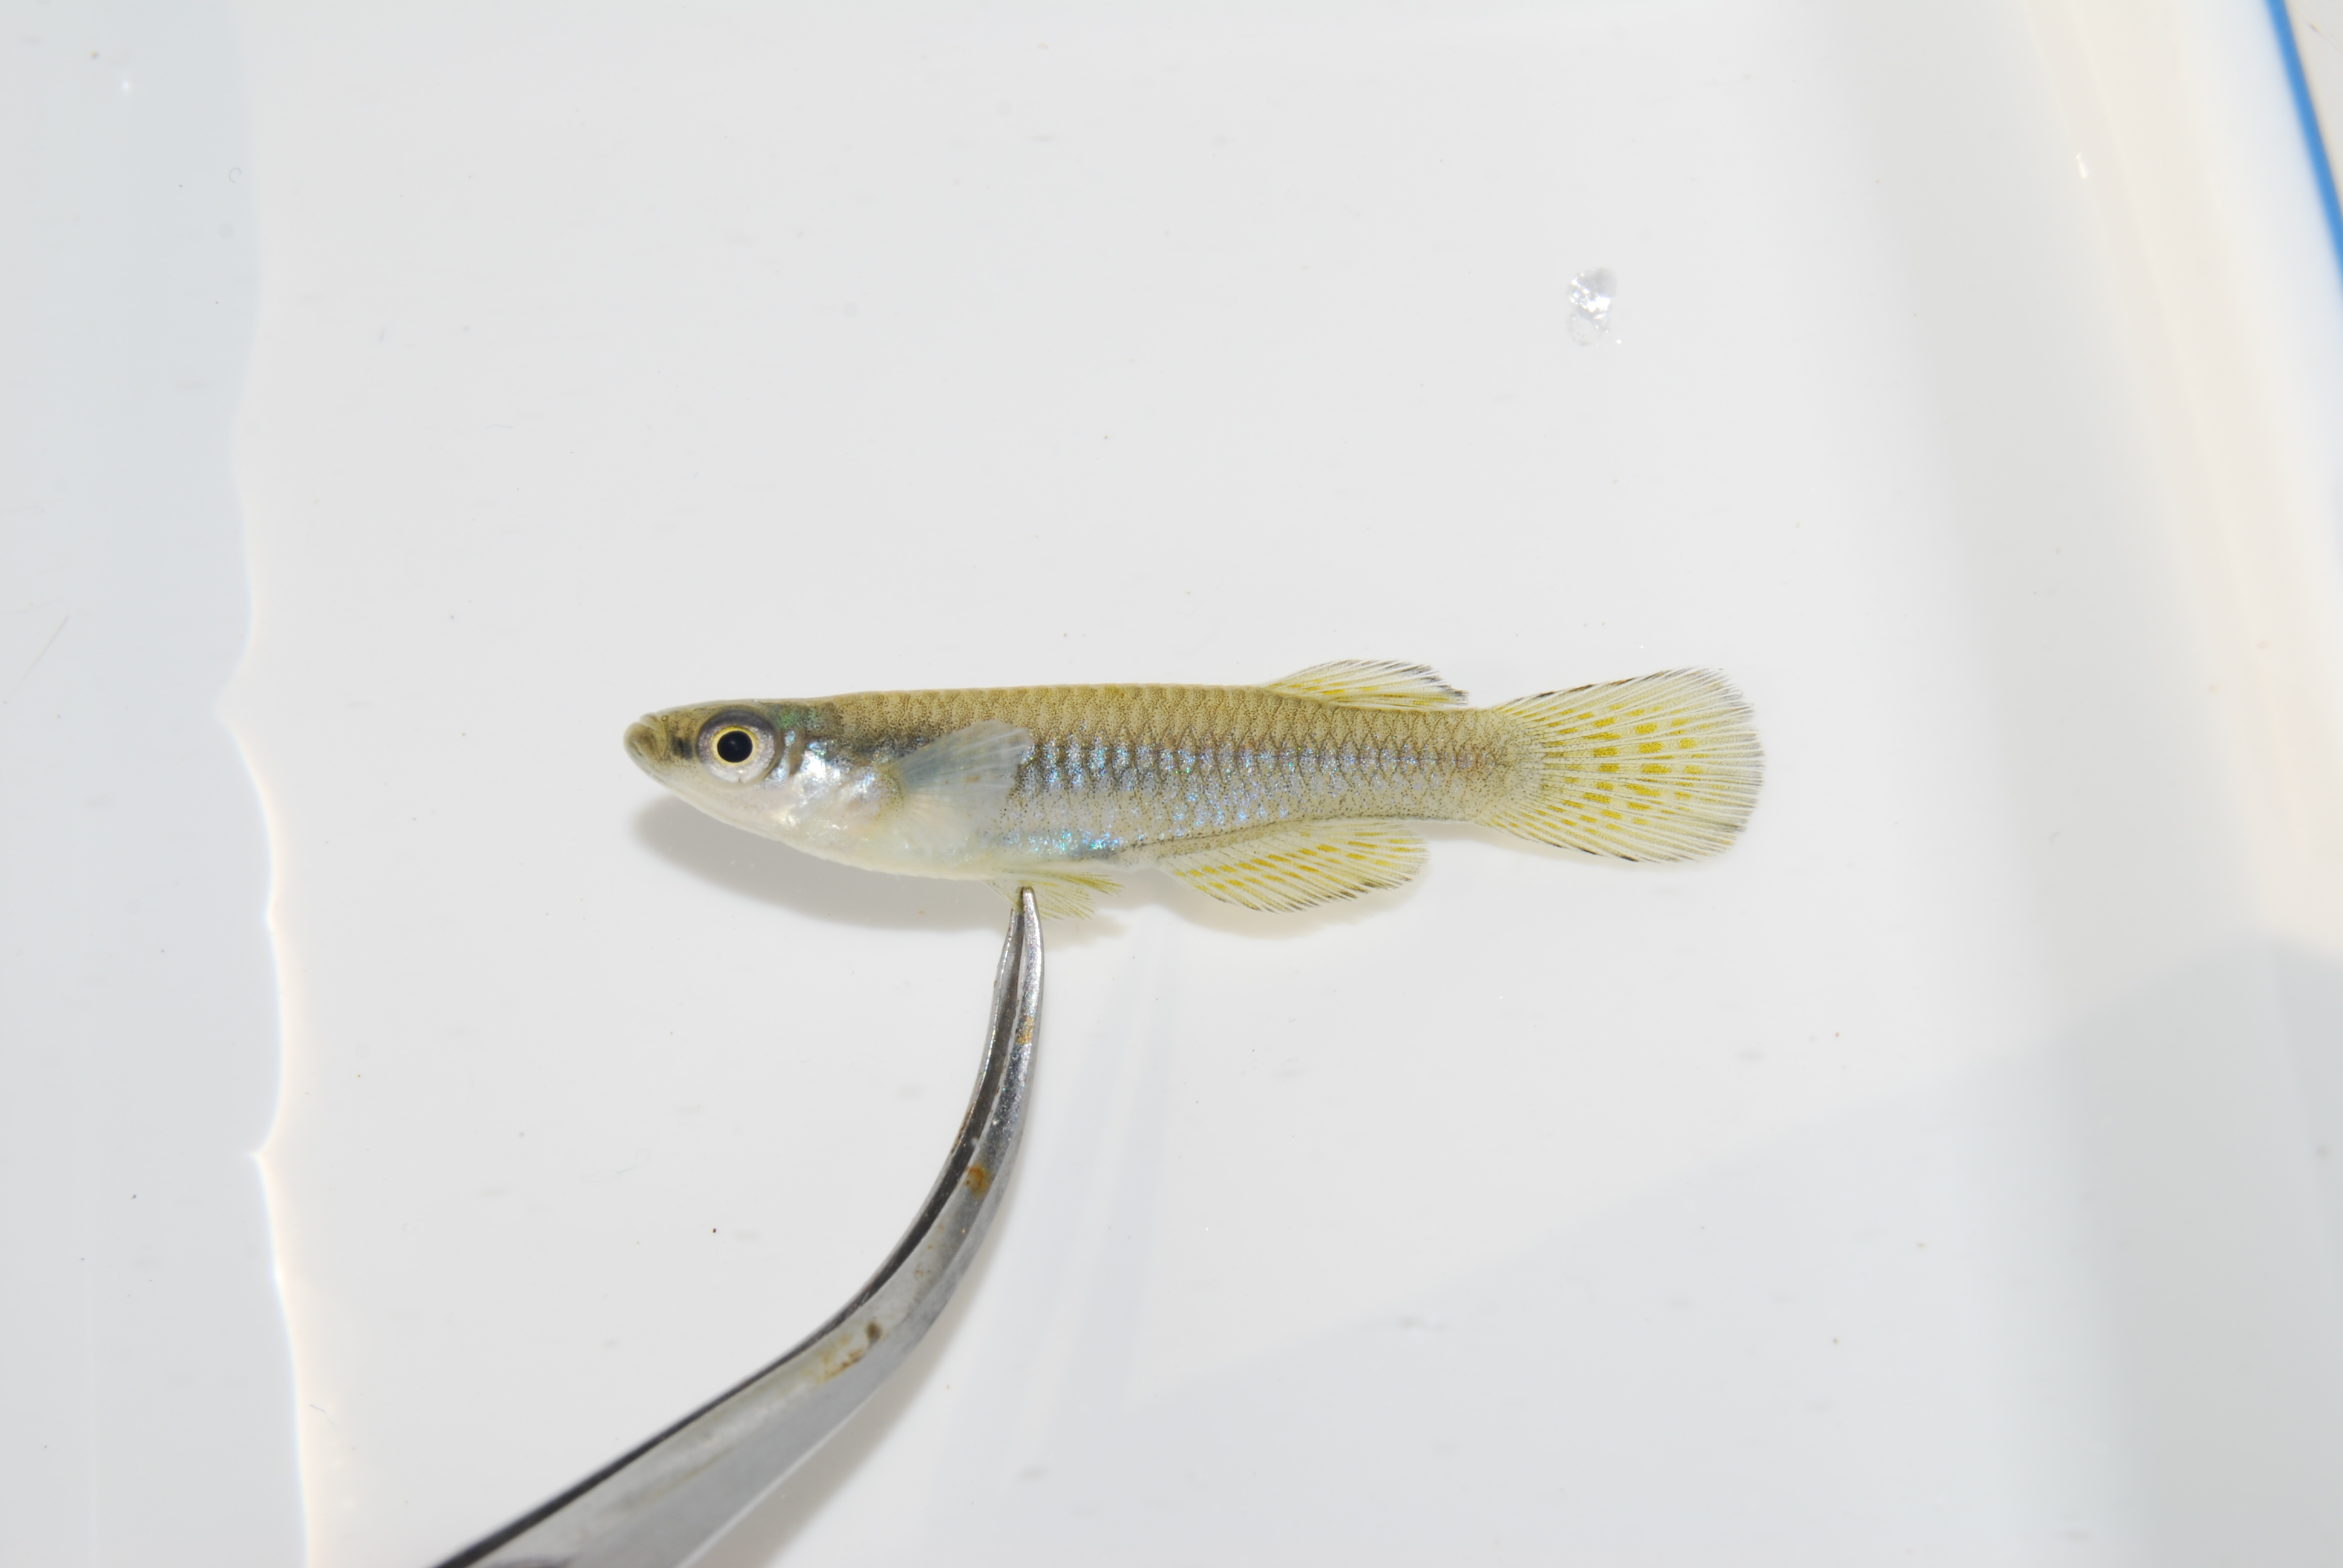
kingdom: Animalia
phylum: Chordata
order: Cyprinodontiformes
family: Poeciliidae
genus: Micropanchax
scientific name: Micropanchax johnstoni
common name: Johnston's topminnow
